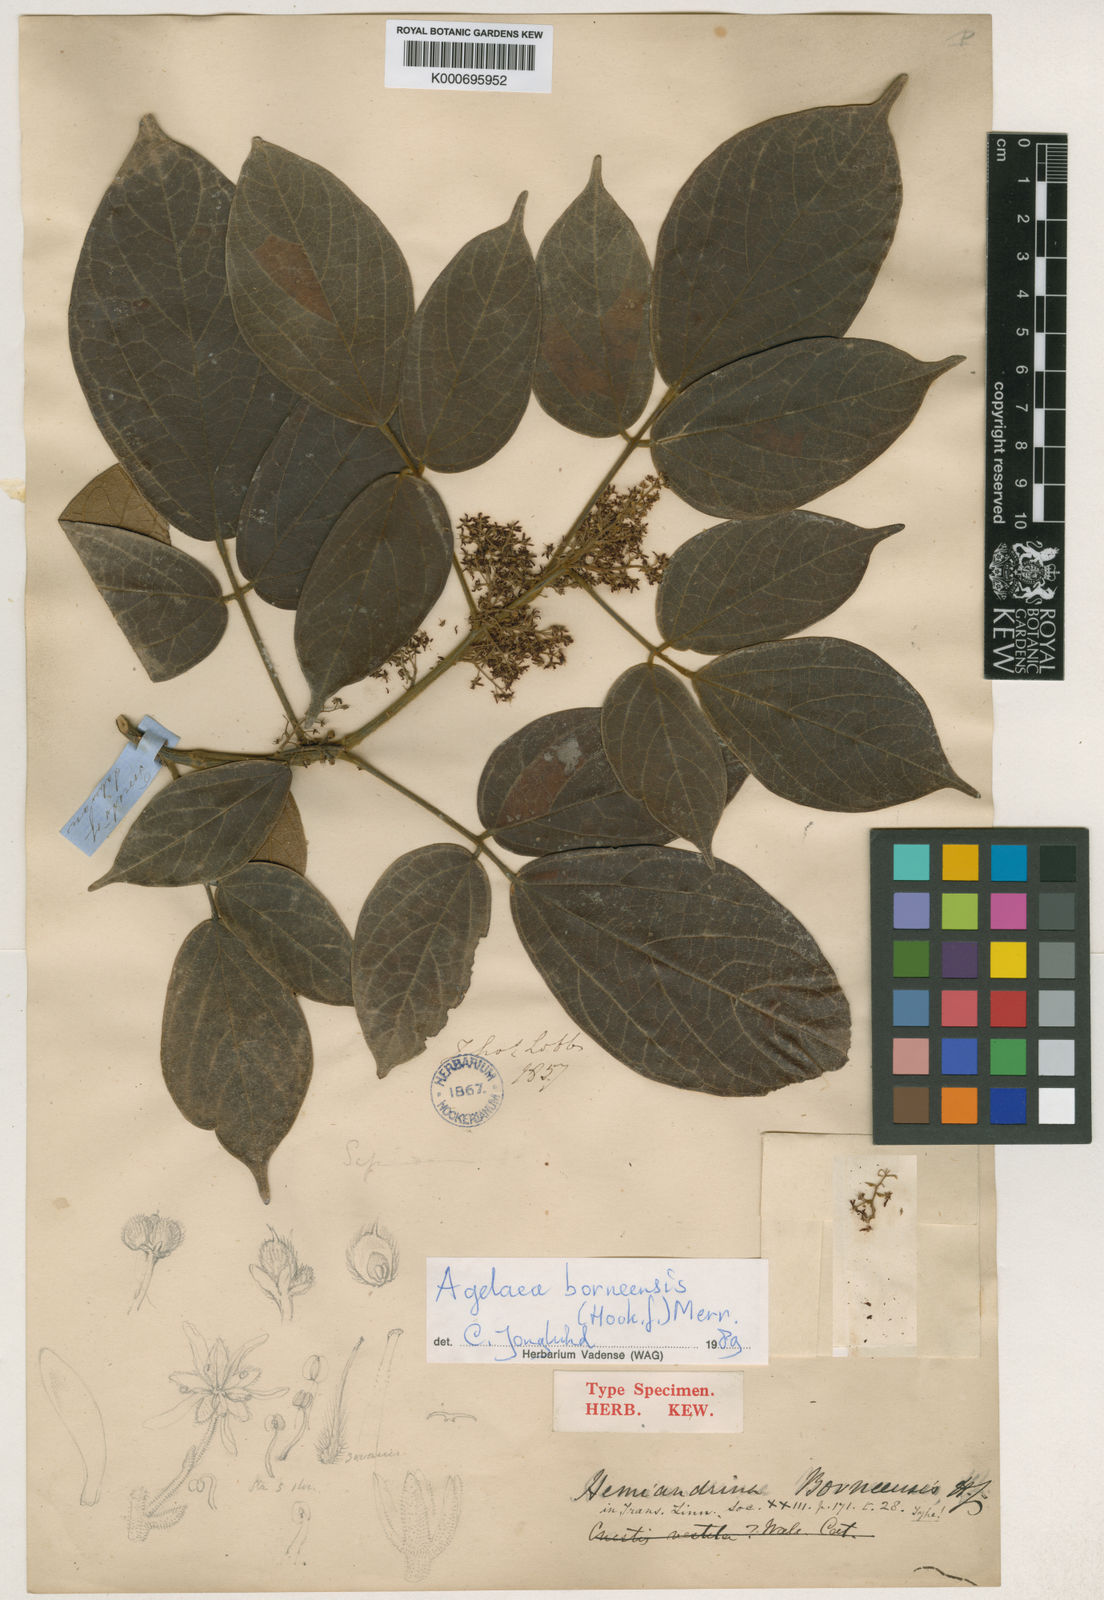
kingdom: Plantae
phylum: Tracheophyta
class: Magnoliopsida
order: Oxalidales
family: Connaraceae
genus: Agelaea
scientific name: Agelaea borneensis
